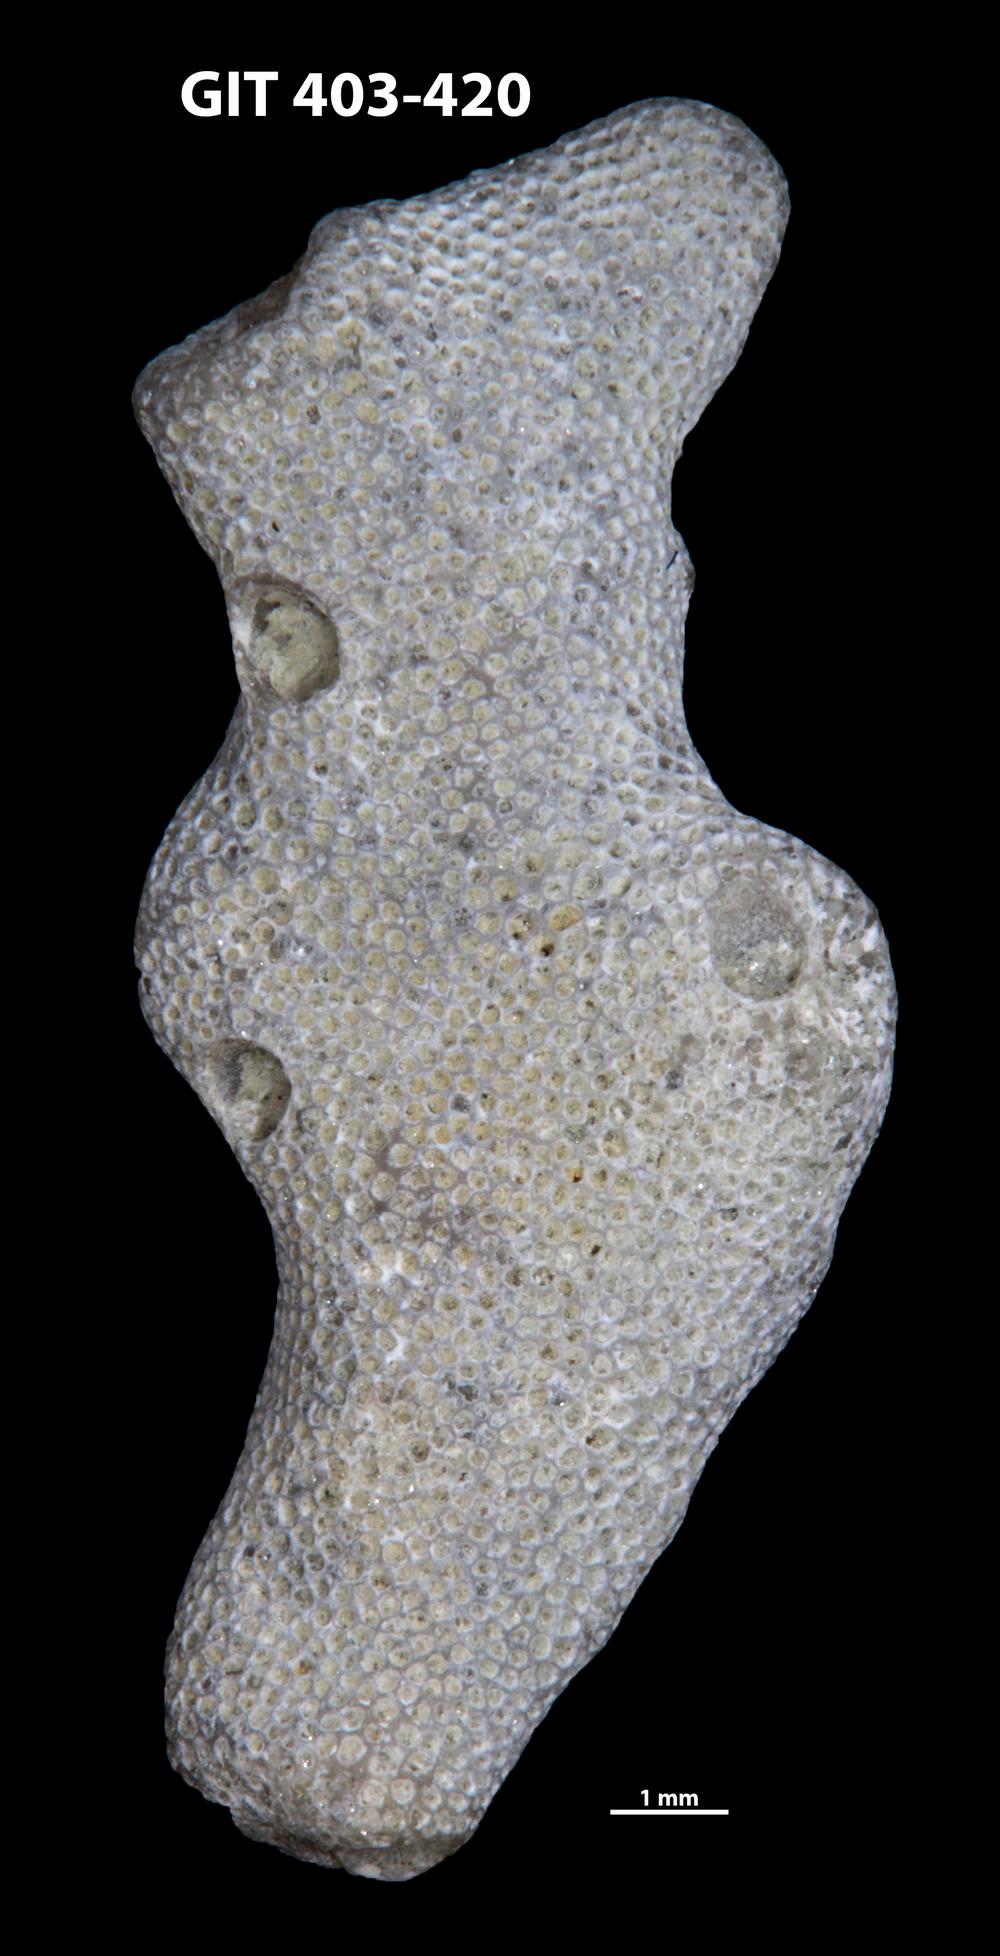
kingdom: Animalia
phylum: Bryozoa
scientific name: Bryozoa
